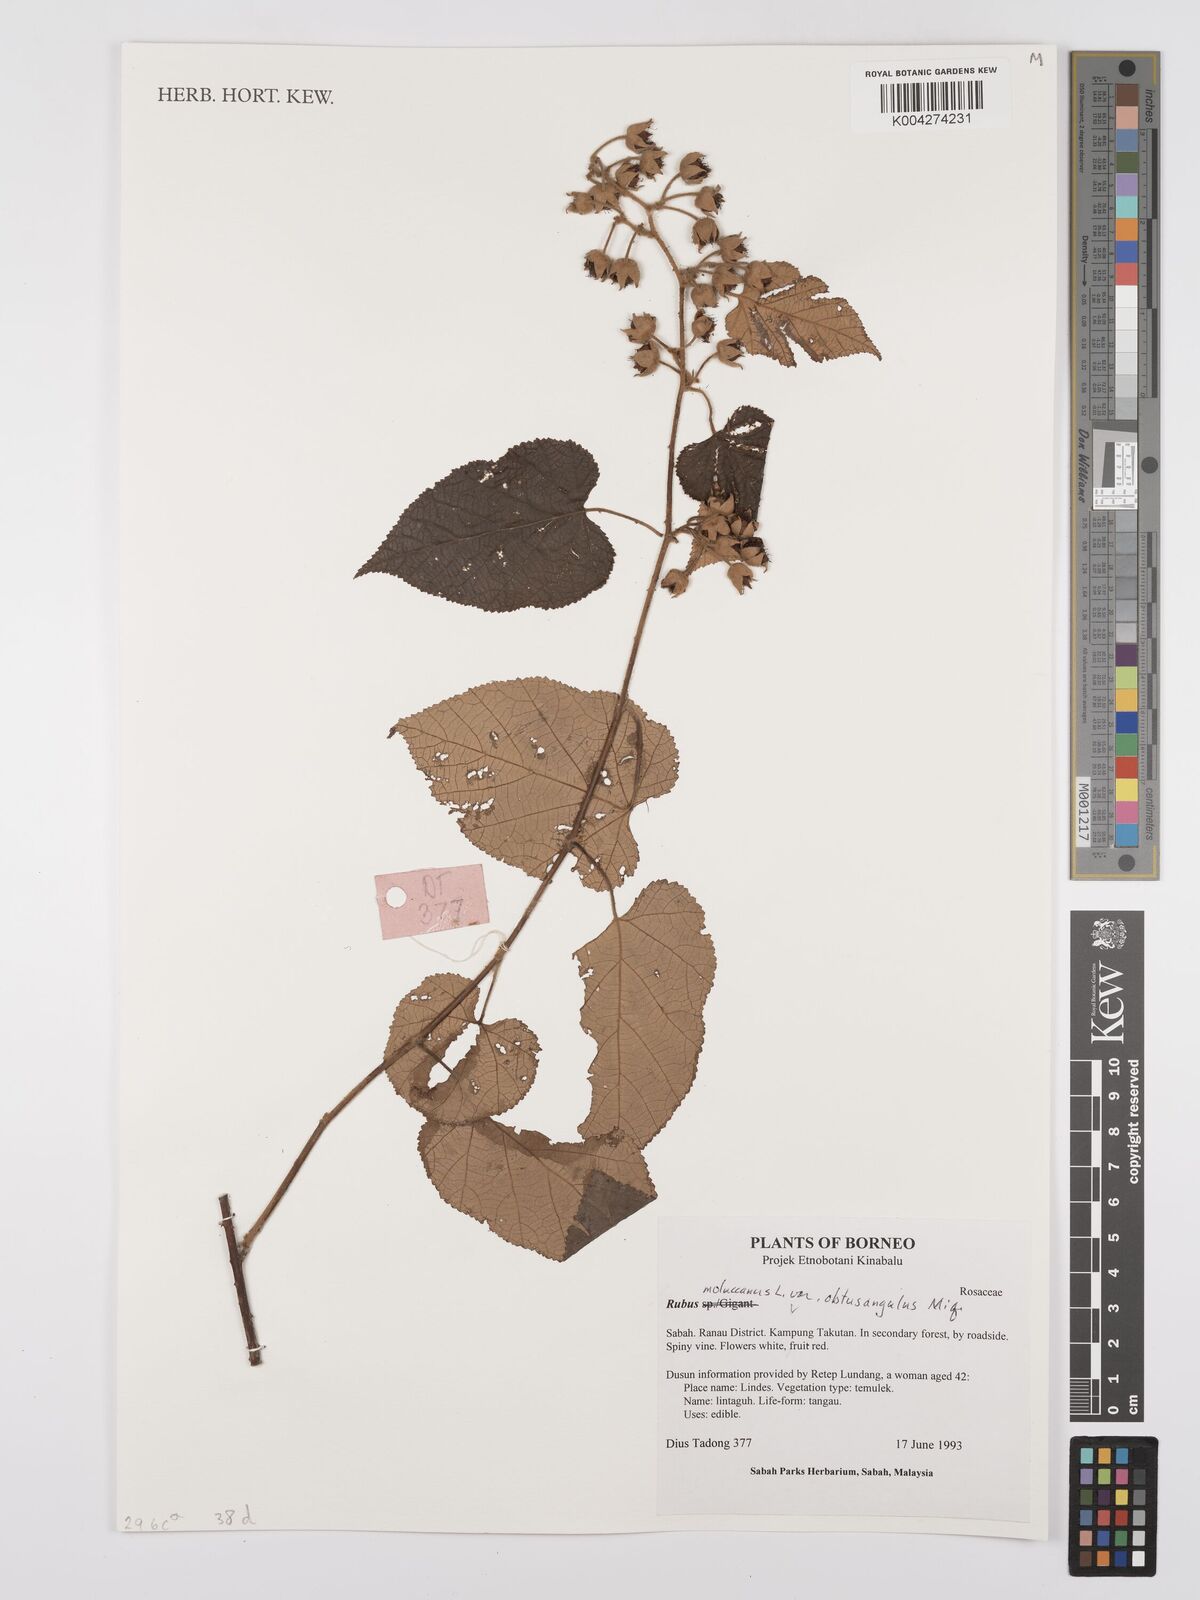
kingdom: Plantae
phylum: Tracheophyta
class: Magnoliopsida
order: Rosales
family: Rosaceae
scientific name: Rosaceae
